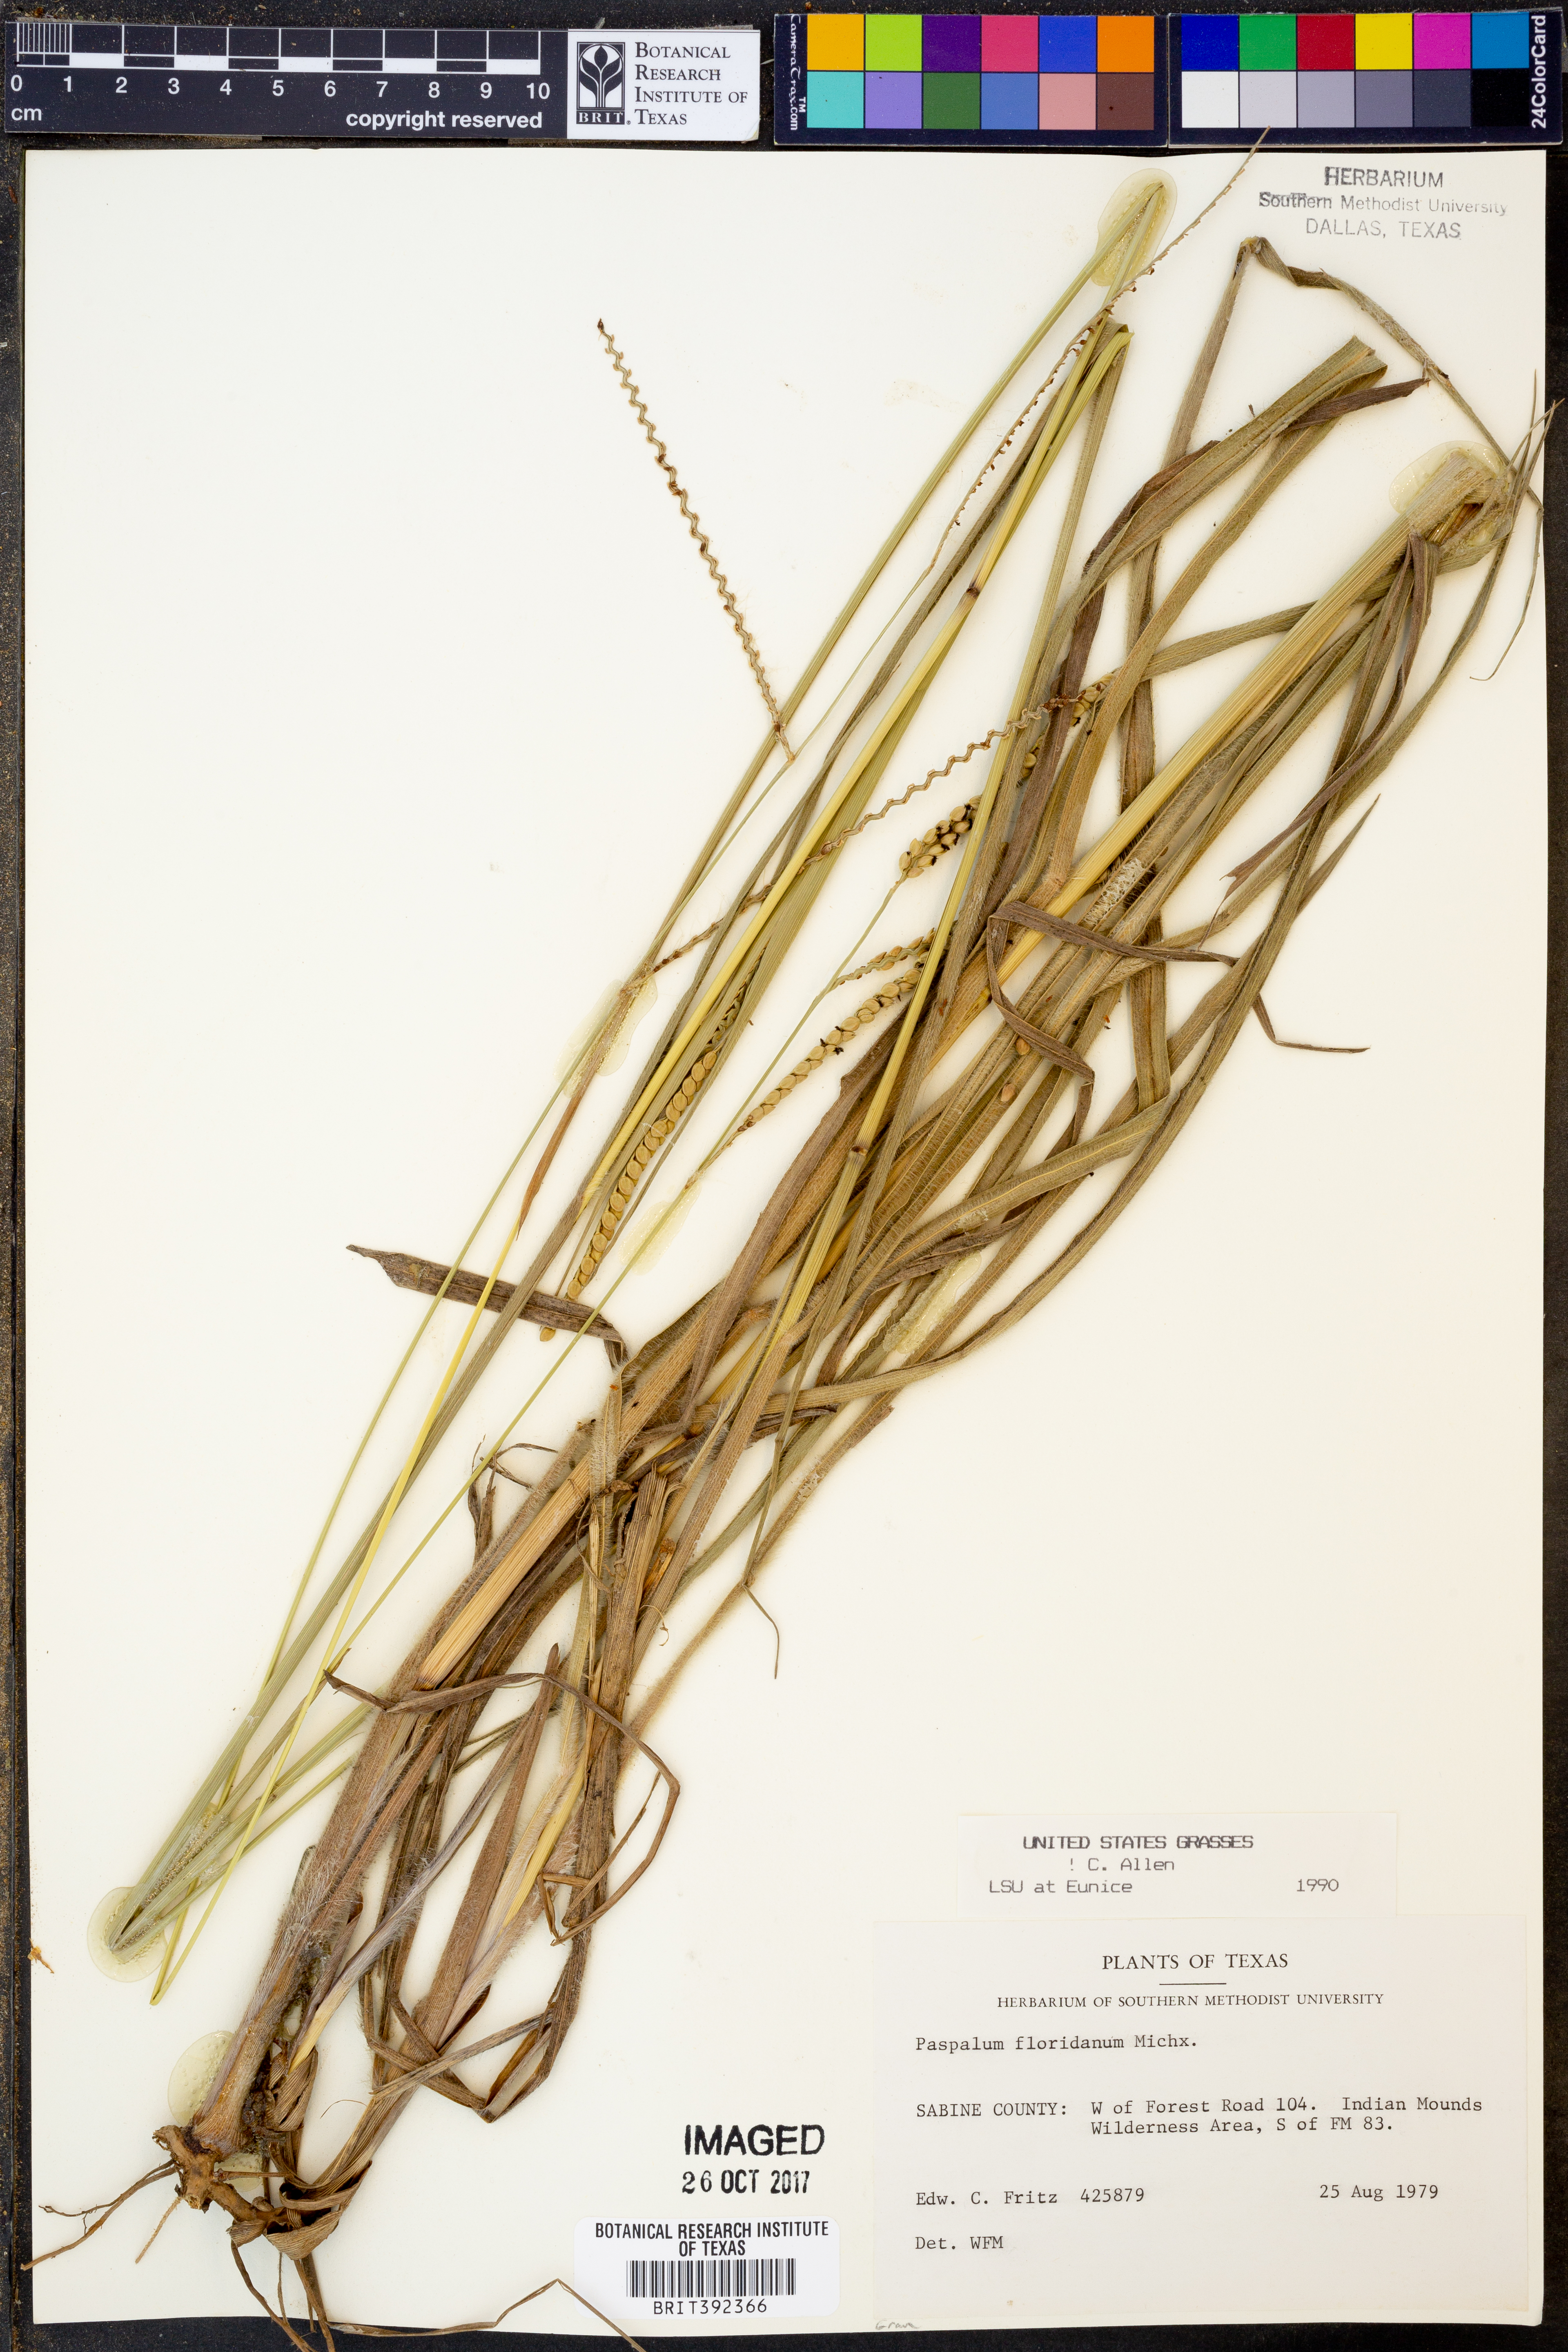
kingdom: Plantae
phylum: Tracheophyta
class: Liliopsida
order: Poales
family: Poaceae
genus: Paspalum
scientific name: Paspalum floridanum
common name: Florida paspalum
